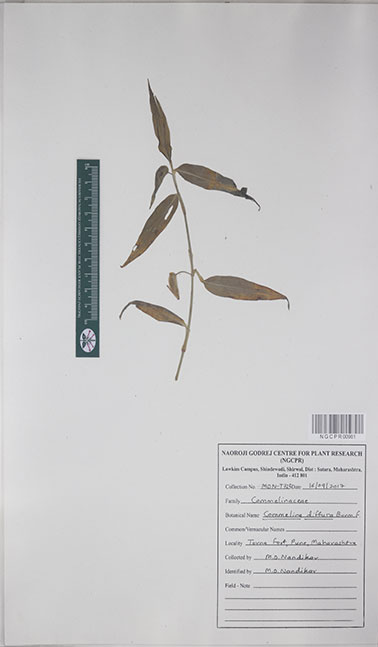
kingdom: Plantae
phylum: Tracheophyta
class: Liliopsida
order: Commelinales
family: Commelinaceae
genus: Commelina
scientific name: Commelina diffusa
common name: Climbing dayflower
